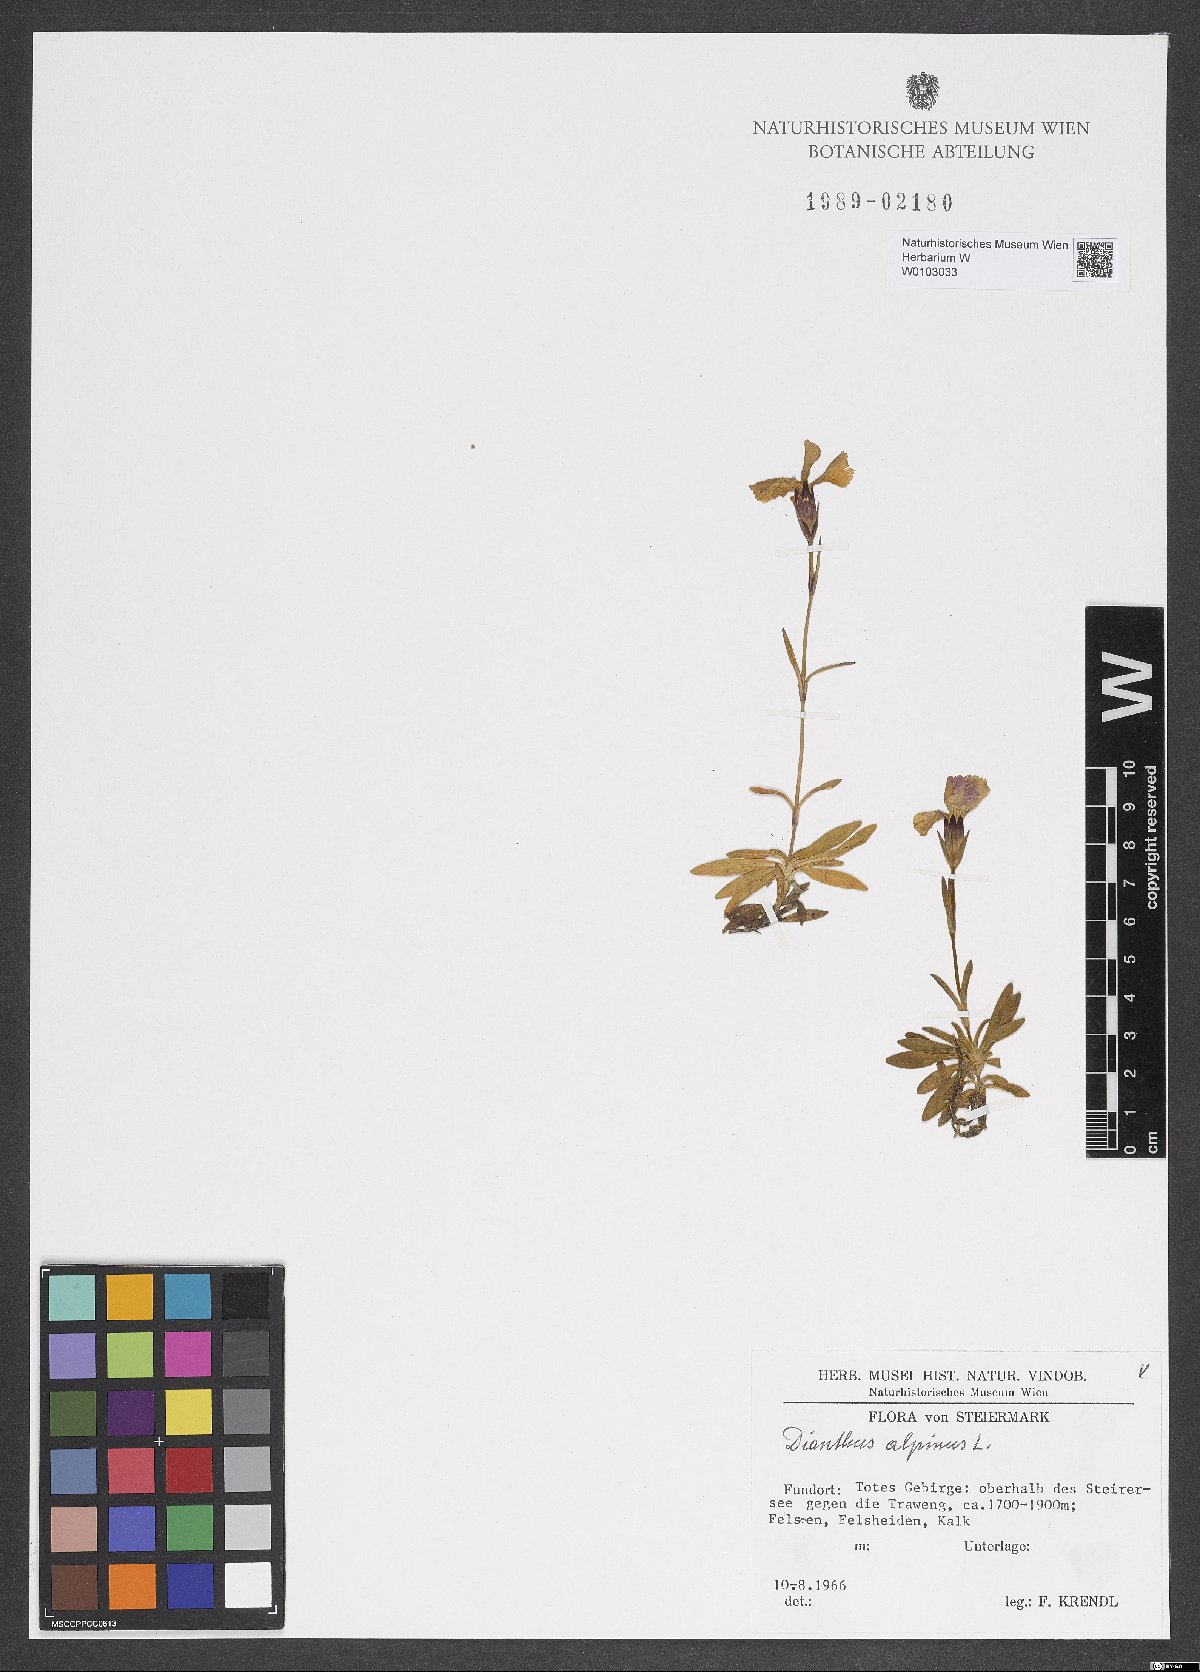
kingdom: Plantae
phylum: Tracheophyta
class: Magnoliopsida
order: Caryophyllales
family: Caryophyllaceae
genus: Dianthus
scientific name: Dianthus alpinus
